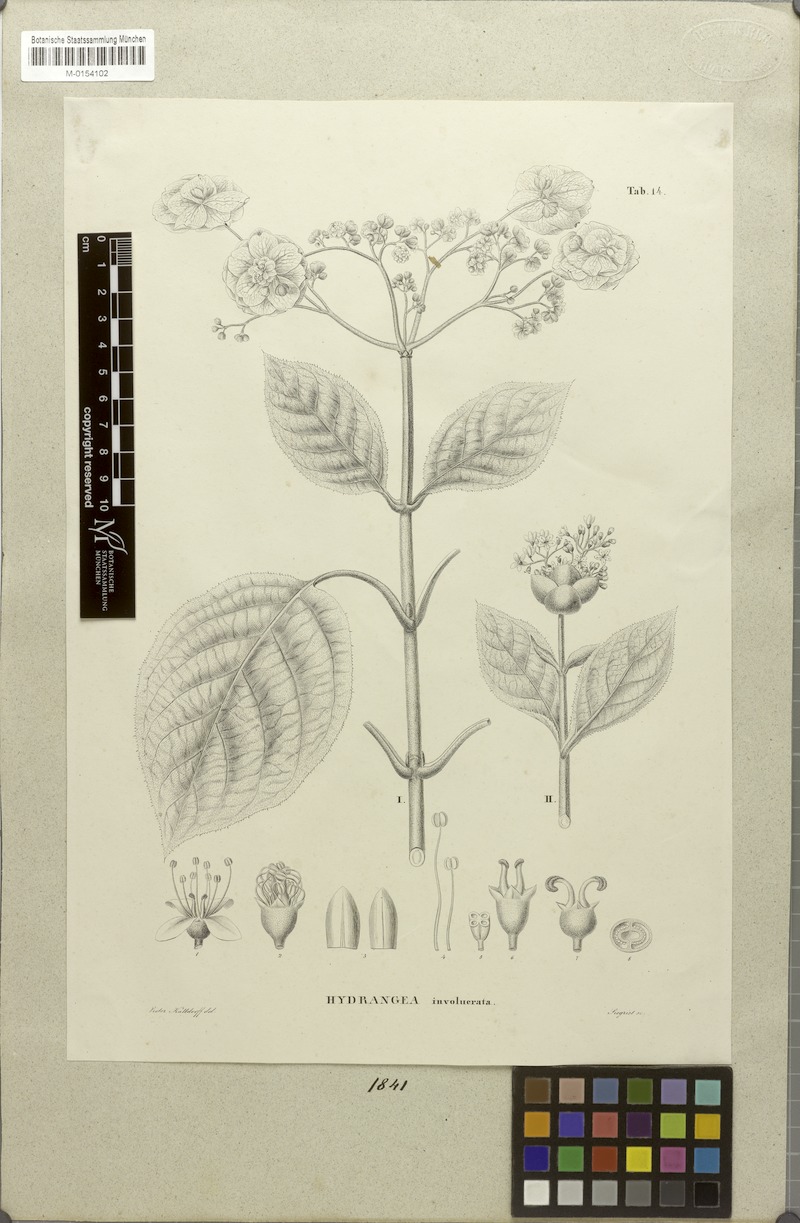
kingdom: Plantae
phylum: Tracheophyta
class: Magnoliopsida
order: Cornales
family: Hydrangeaceae
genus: Hydrangea
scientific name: Hydrangea involucrata
